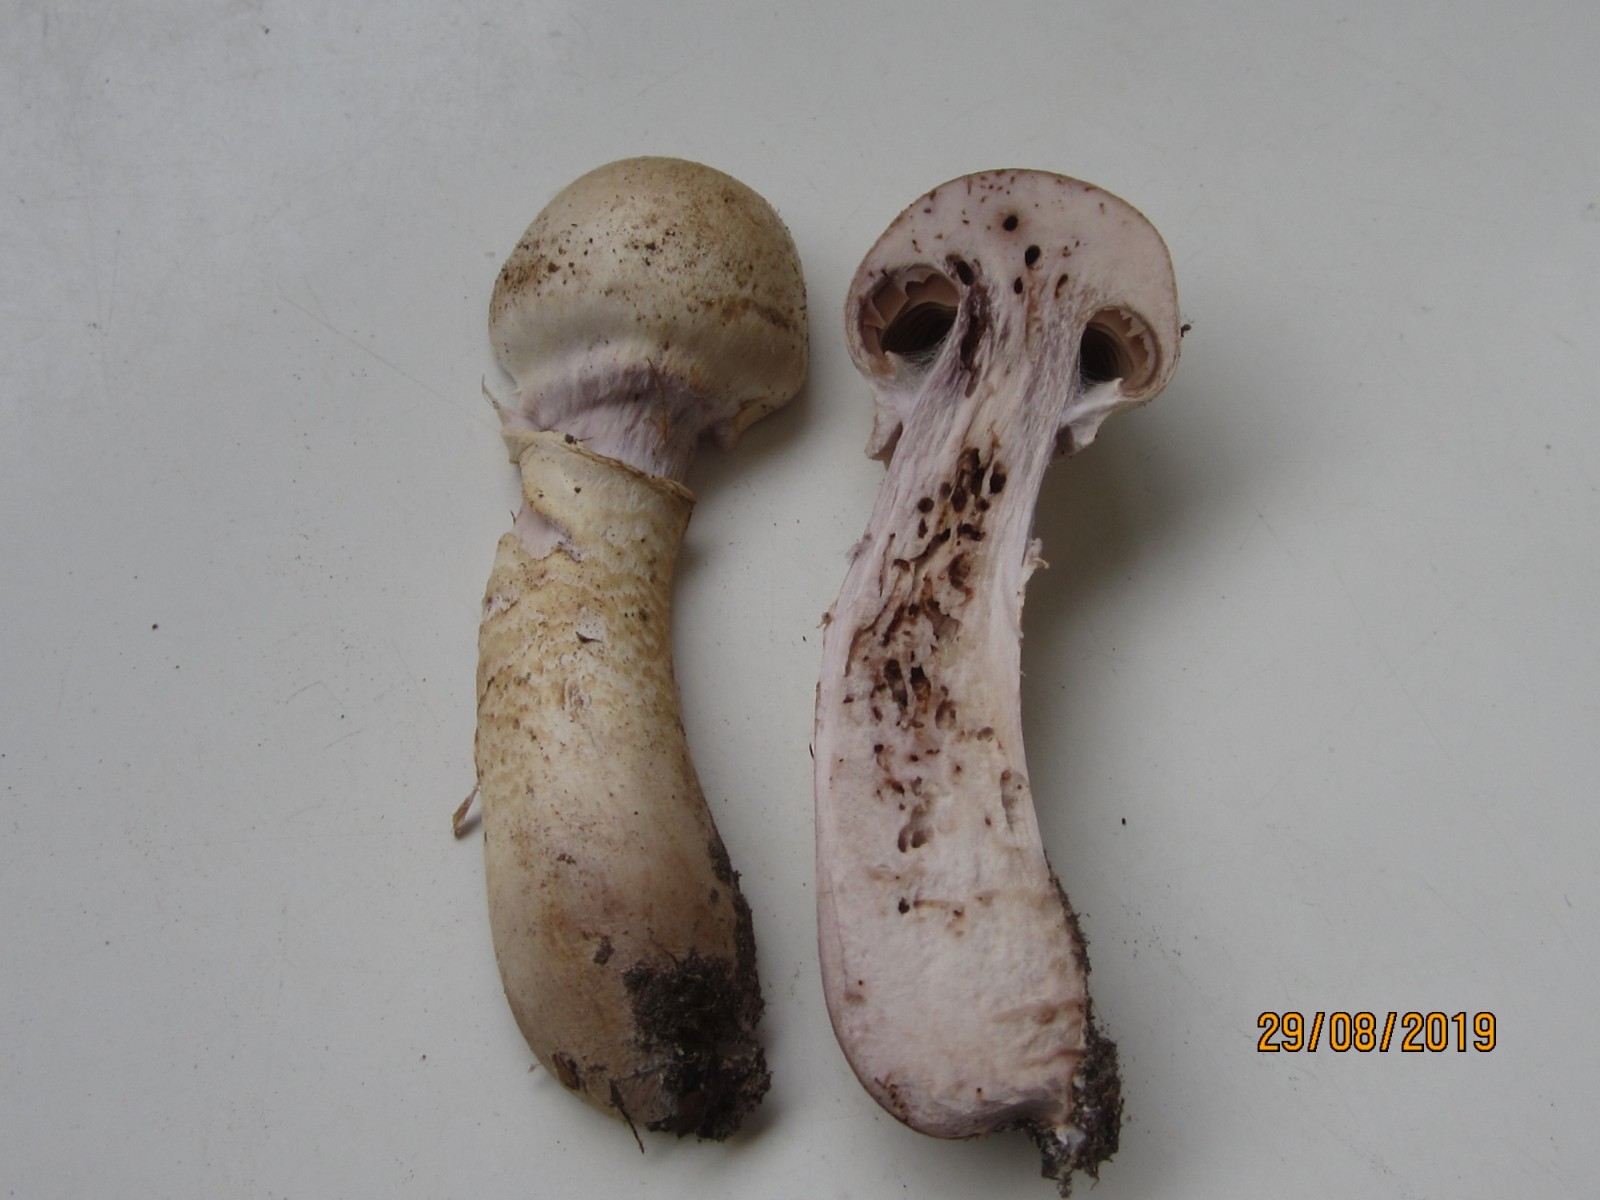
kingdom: Fungi
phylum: Basidiomycota
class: Agaricomycetes
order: Agaricales
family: Cortinariaceae
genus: Cortinarius
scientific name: Cortinarius
